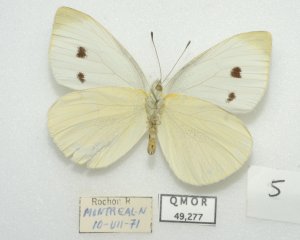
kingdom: Animalia
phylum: Arthropoda
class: Insecta
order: Lepidoptera
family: Pieridae
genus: Pieris
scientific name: Pieris rapae
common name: Cabbage White
